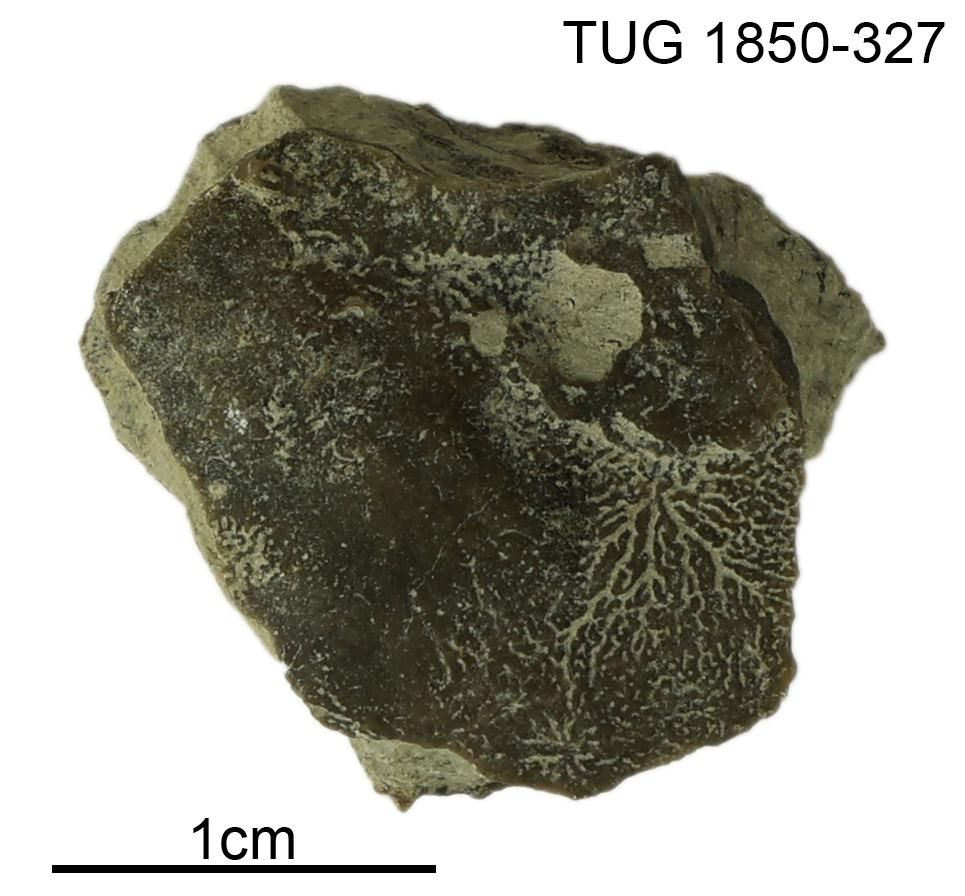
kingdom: Animalia
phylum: Porifera
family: Pseudolabechiidae
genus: Pseudolabechia
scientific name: Pseudolabechia
